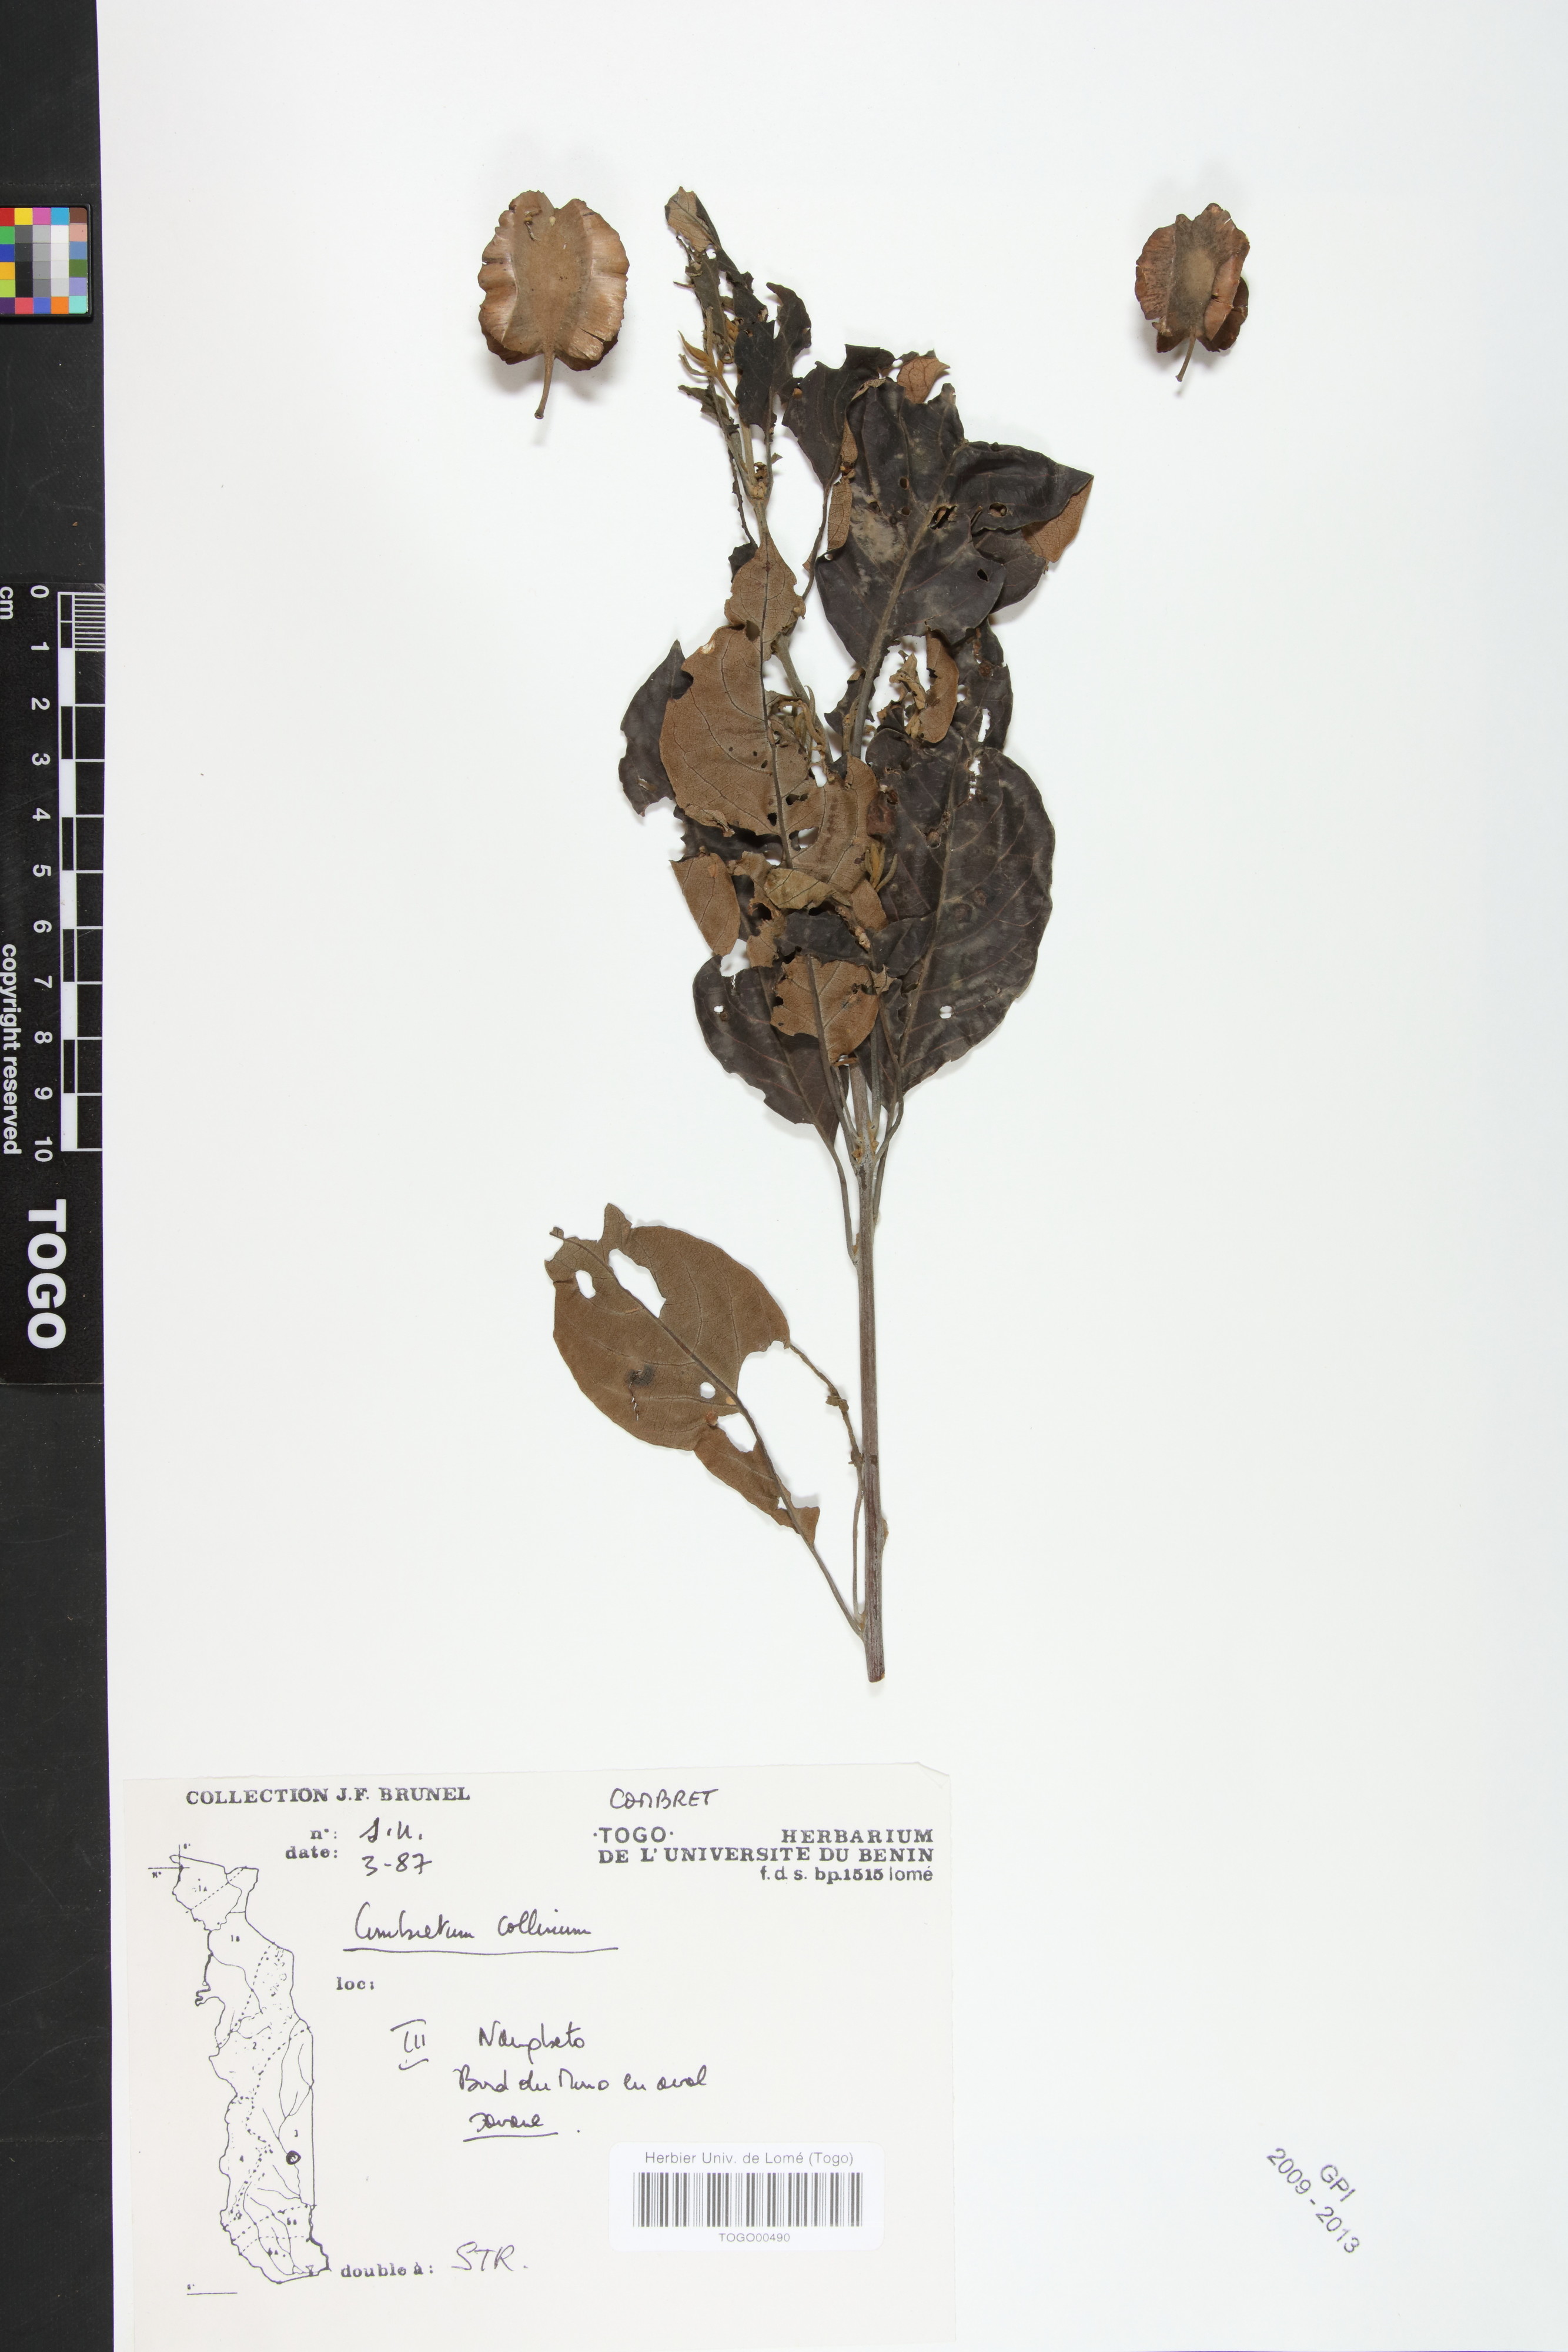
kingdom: Plantae
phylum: Tracheophyta
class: Magnoliopsida
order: Myrtales
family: Combretaceae
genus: Combretum
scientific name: Combretum collinum
